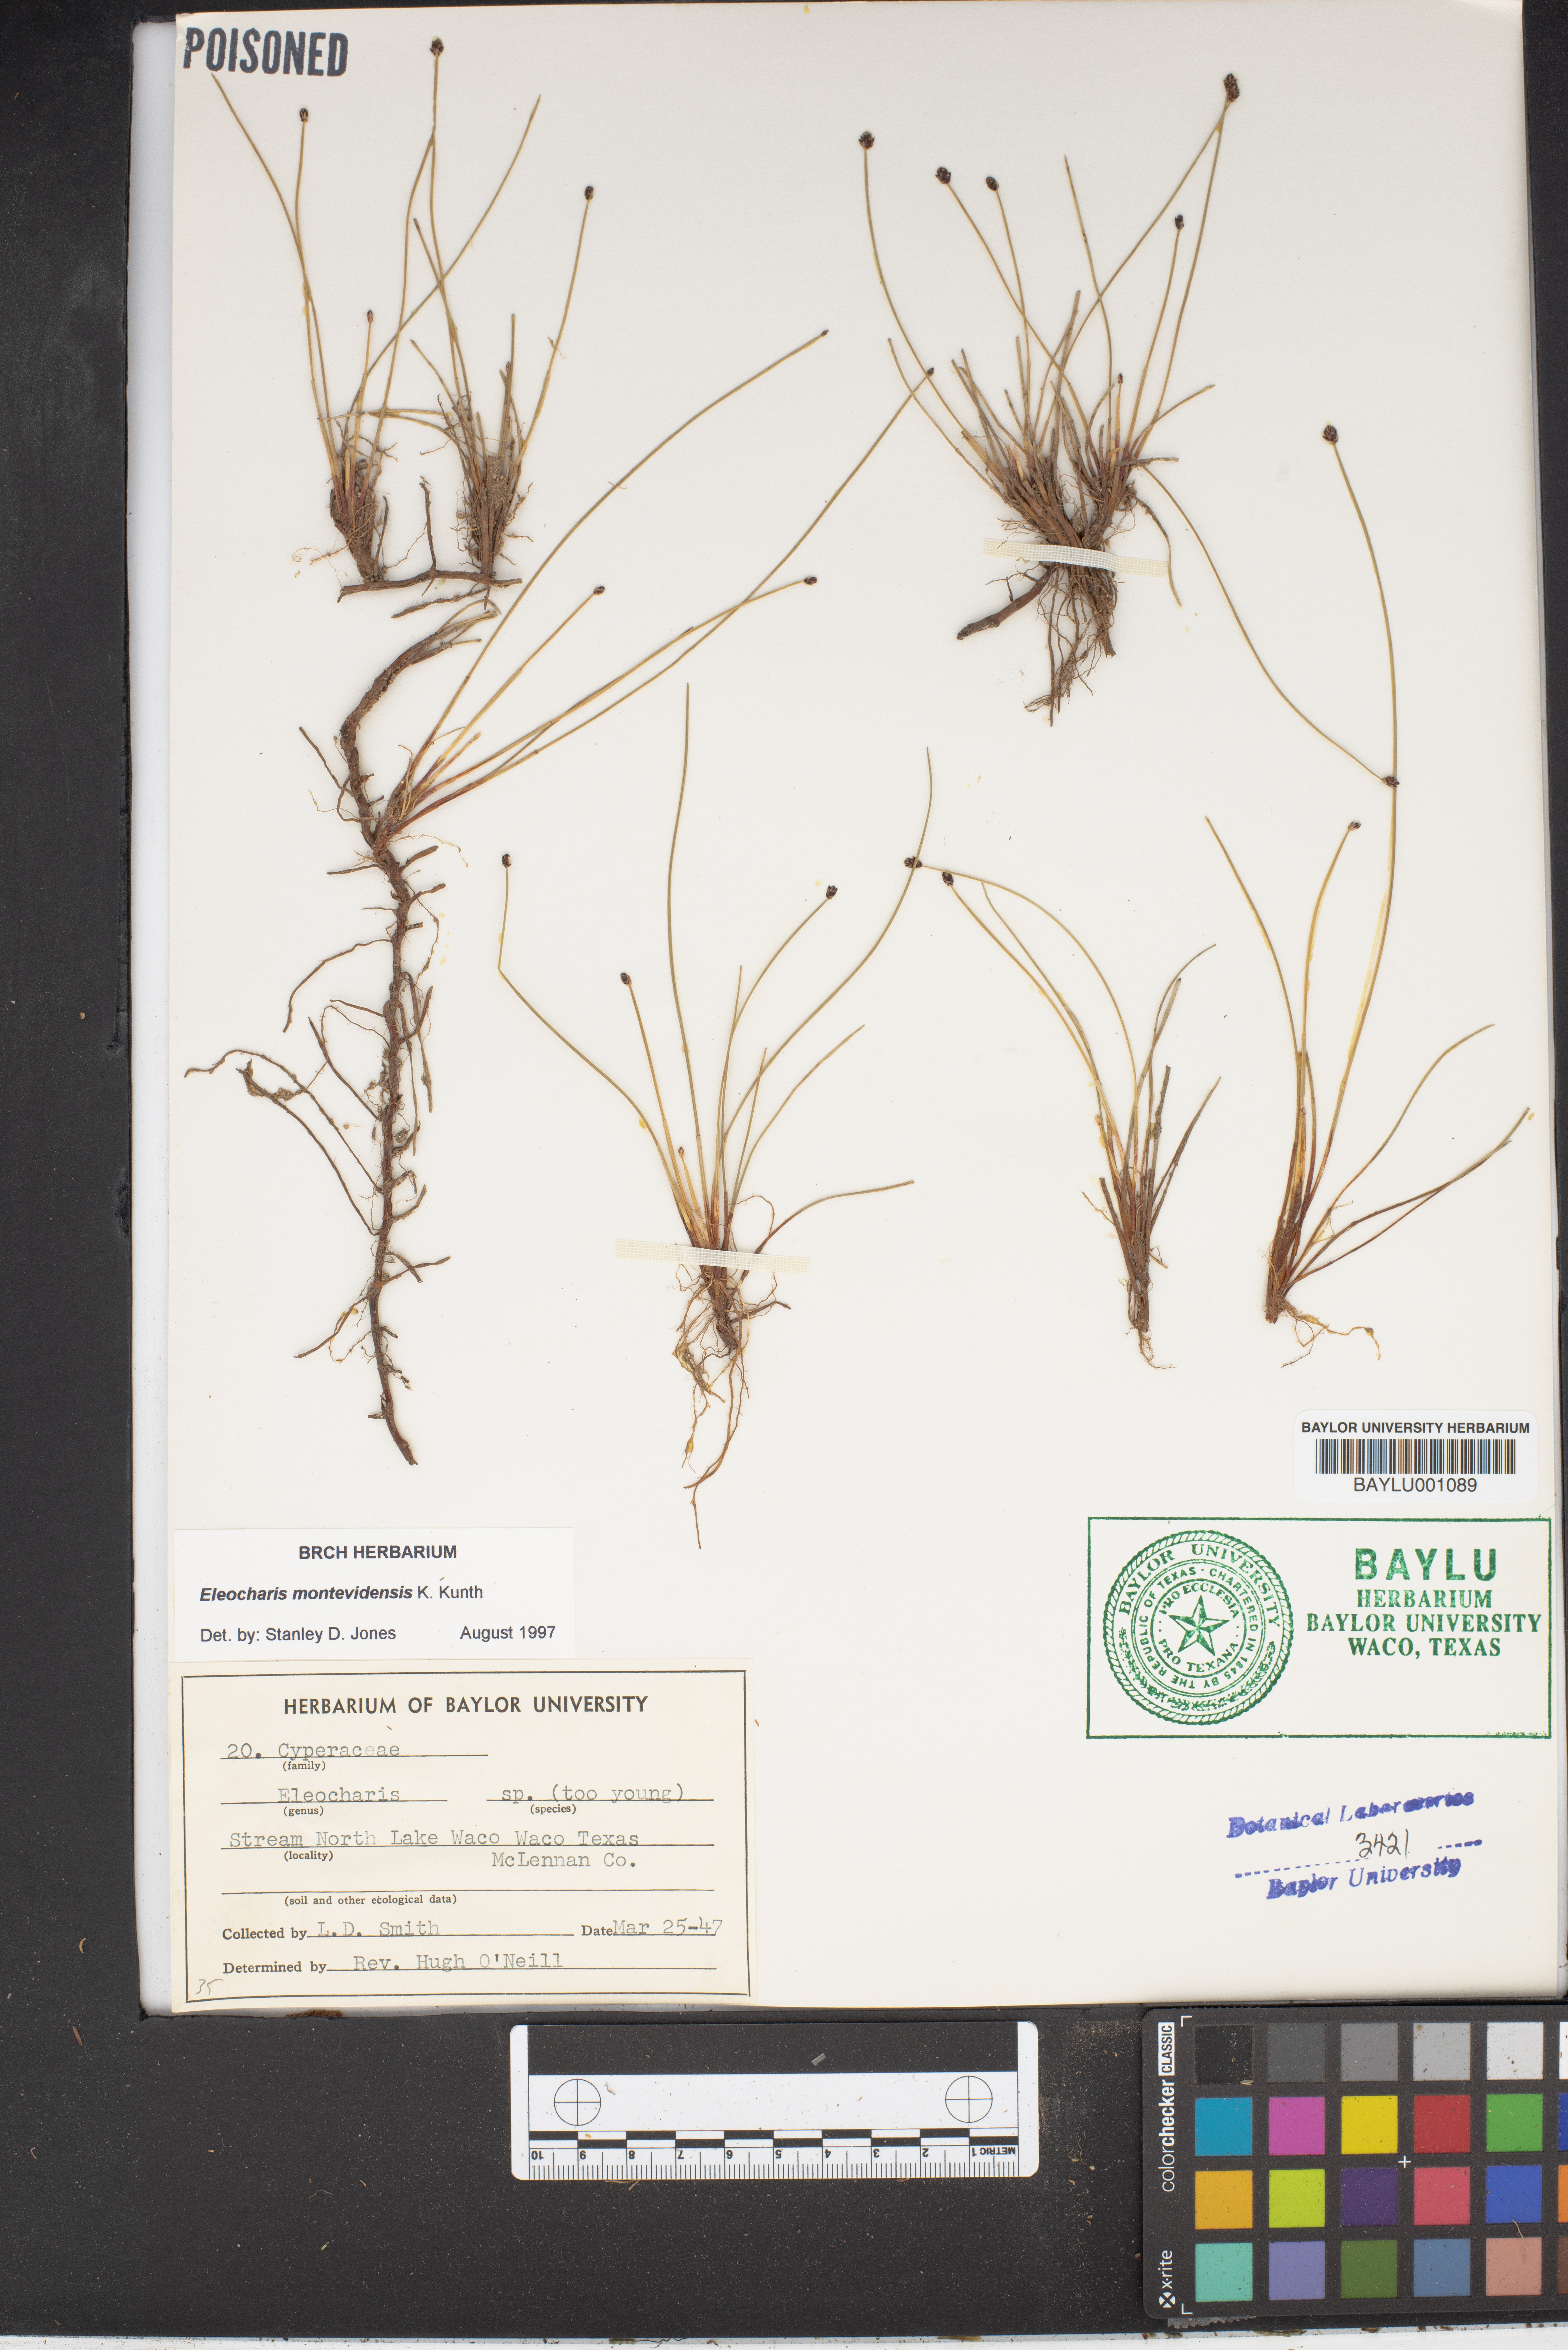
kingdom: Plantae
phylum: Tracheophyta
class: Liliopsida
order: Poales
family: Cyperaceae
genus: Eleocharis
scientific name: Eleocharis
